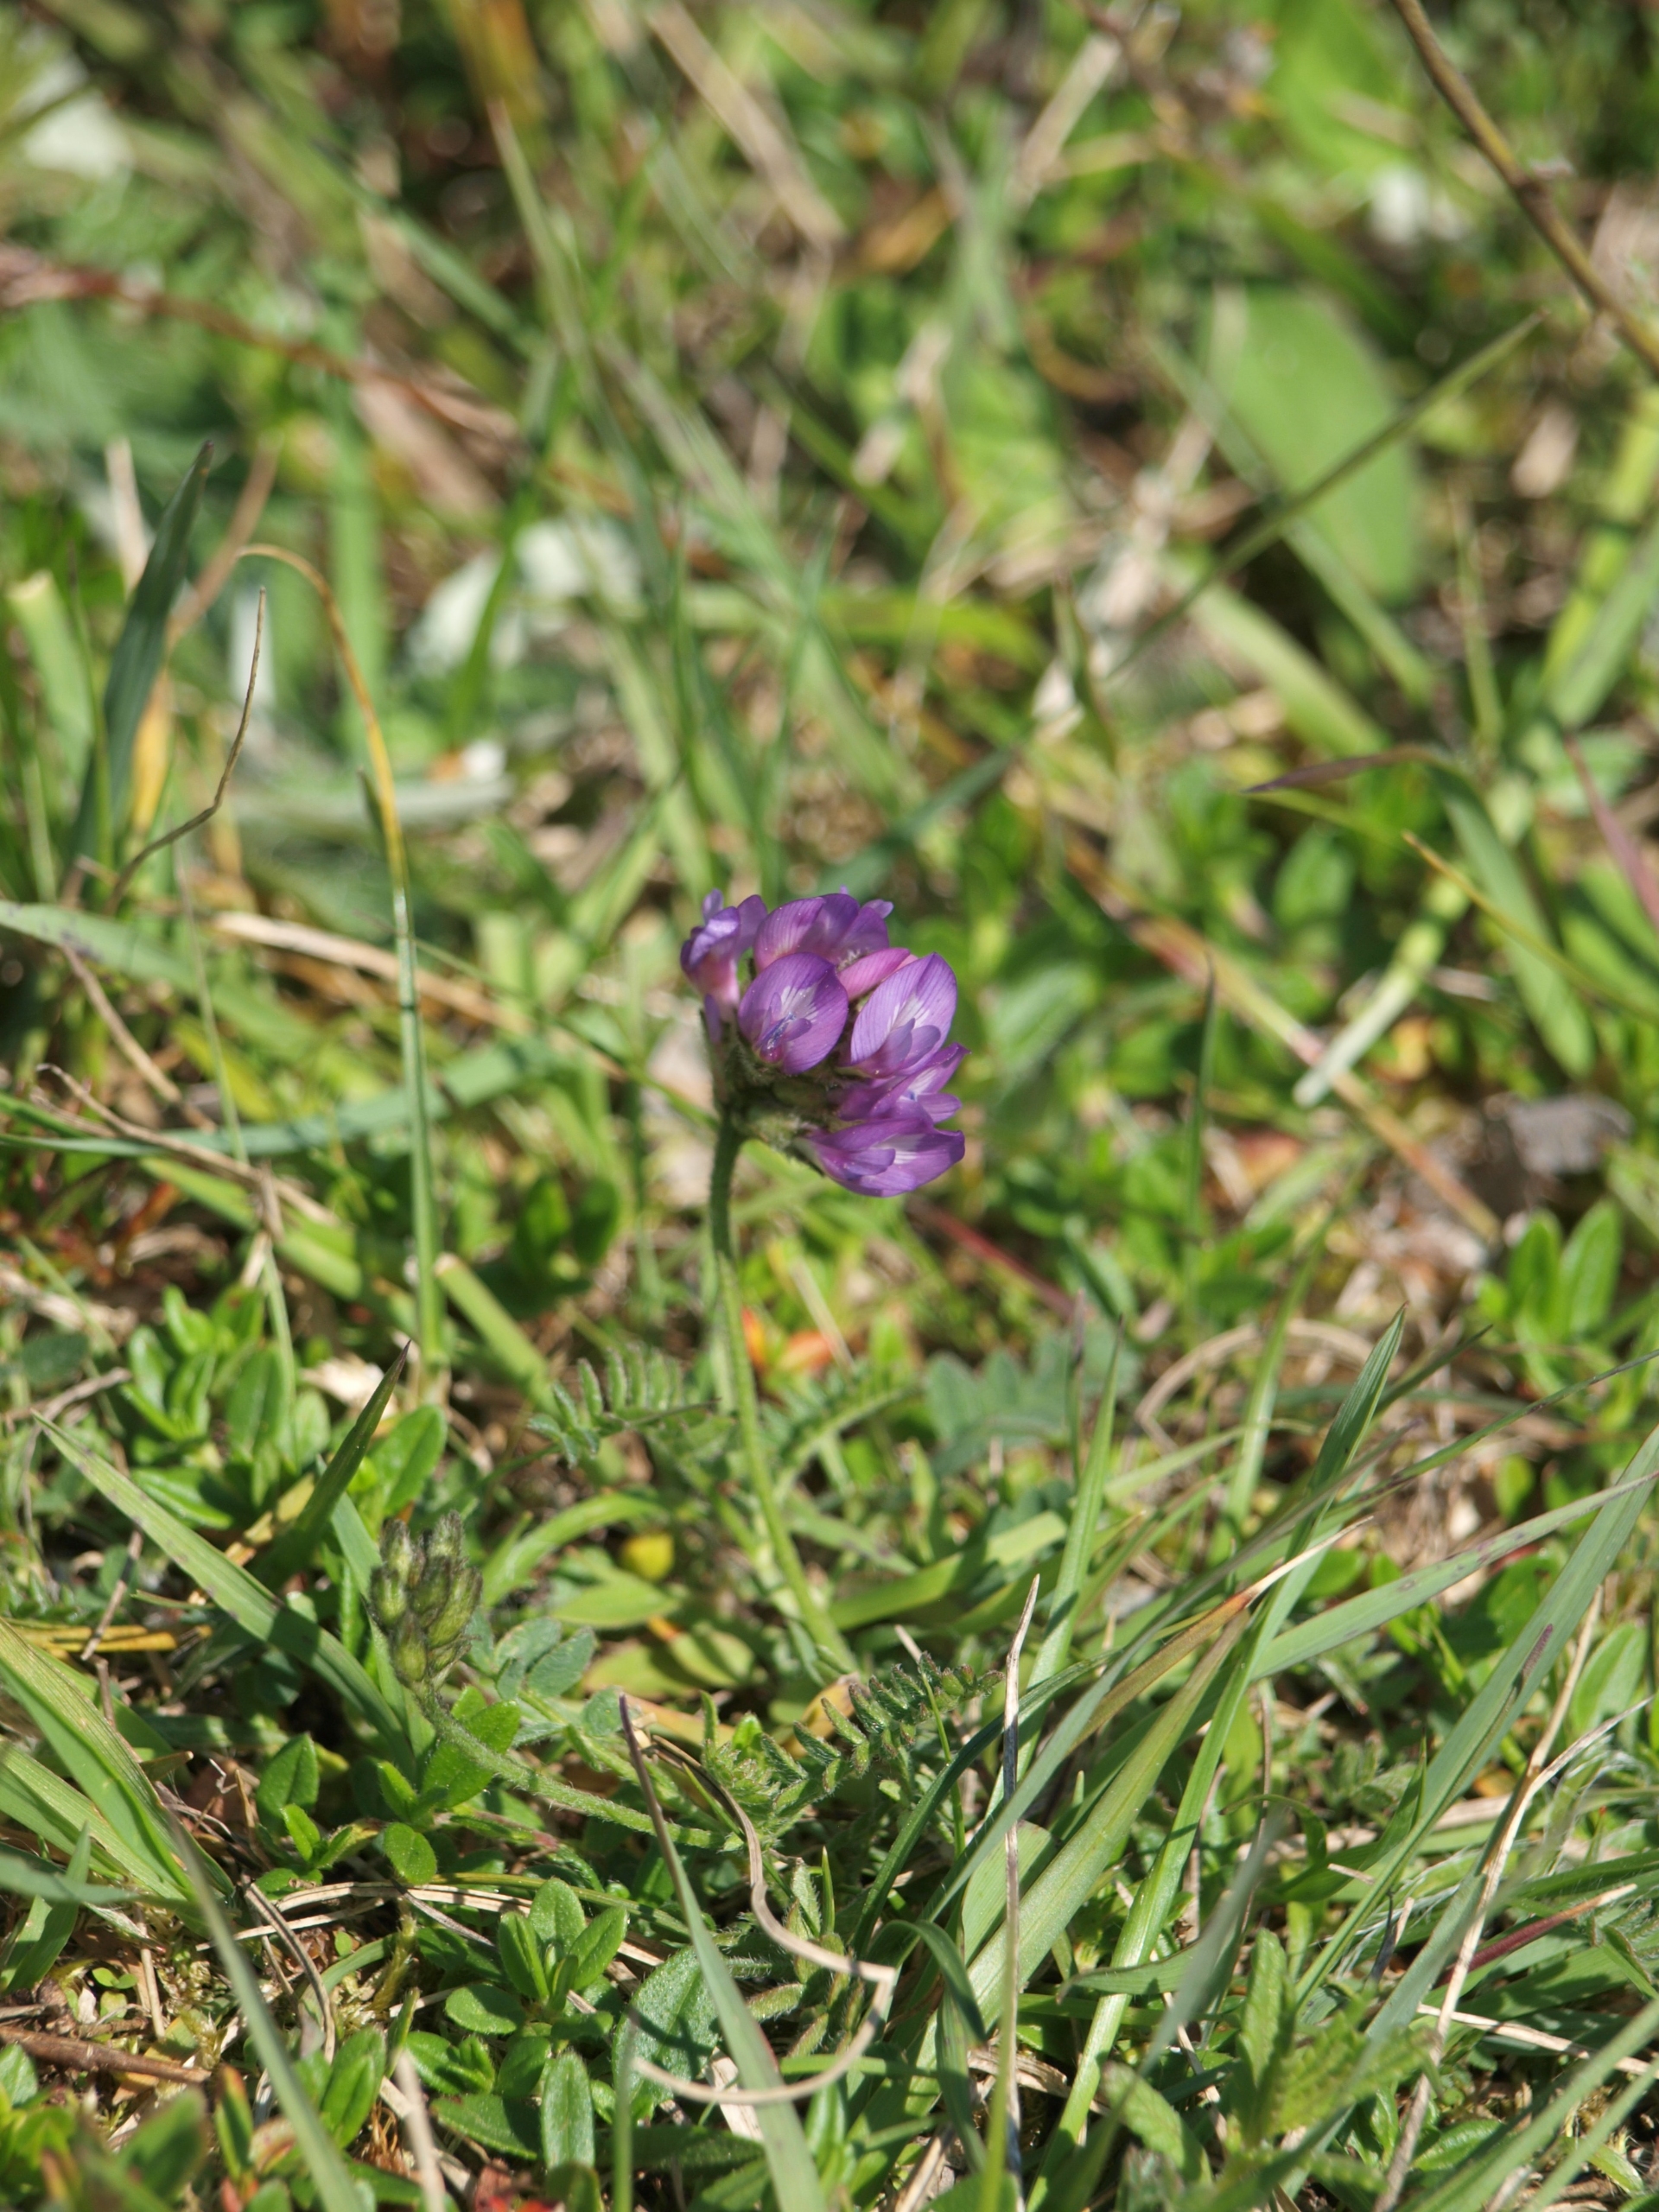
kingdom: Plantae
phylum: Tracheophyta
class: Magnoliopsida
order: Fabales
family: Fabaceae
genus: Astragalus
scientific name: Astragalus danicus
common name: Dansk astragel
